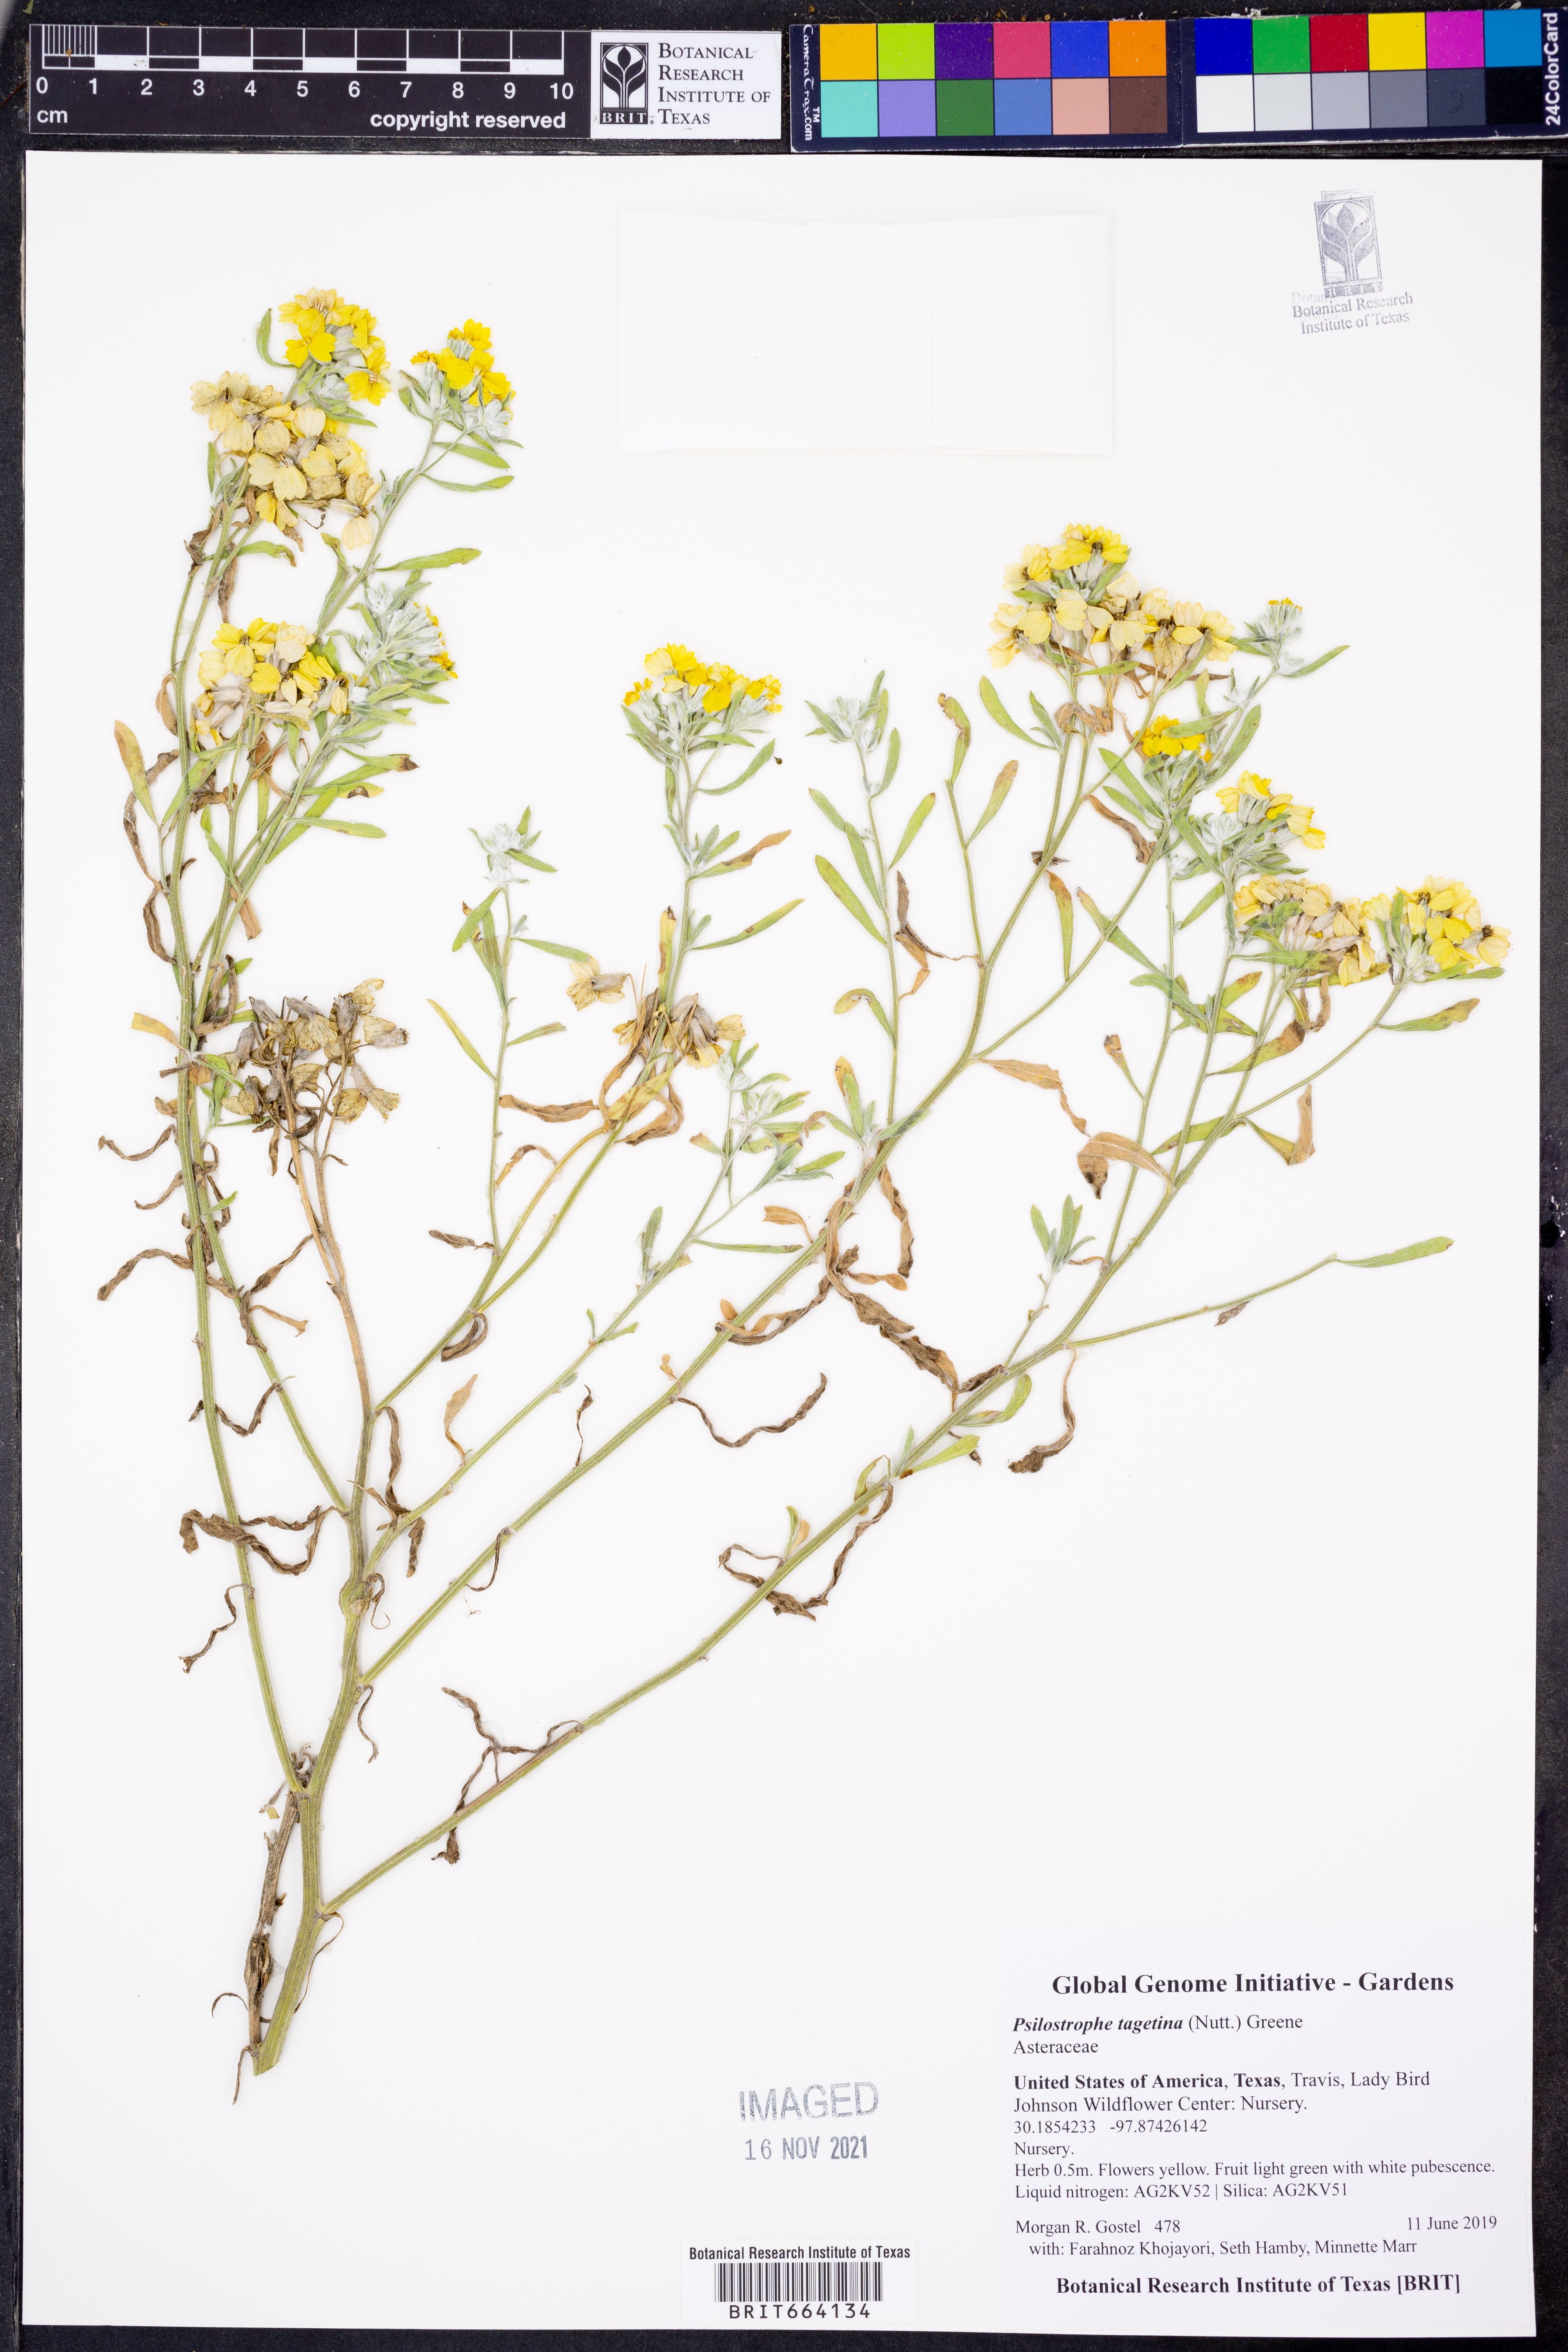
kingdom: Plantae
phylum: Tracheophyta
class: Magnoliopsida
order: Asterales
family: Asteraceae
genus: Psilostrophe
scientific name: Psilostrophe tagetina
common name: Marigold paper-flower
